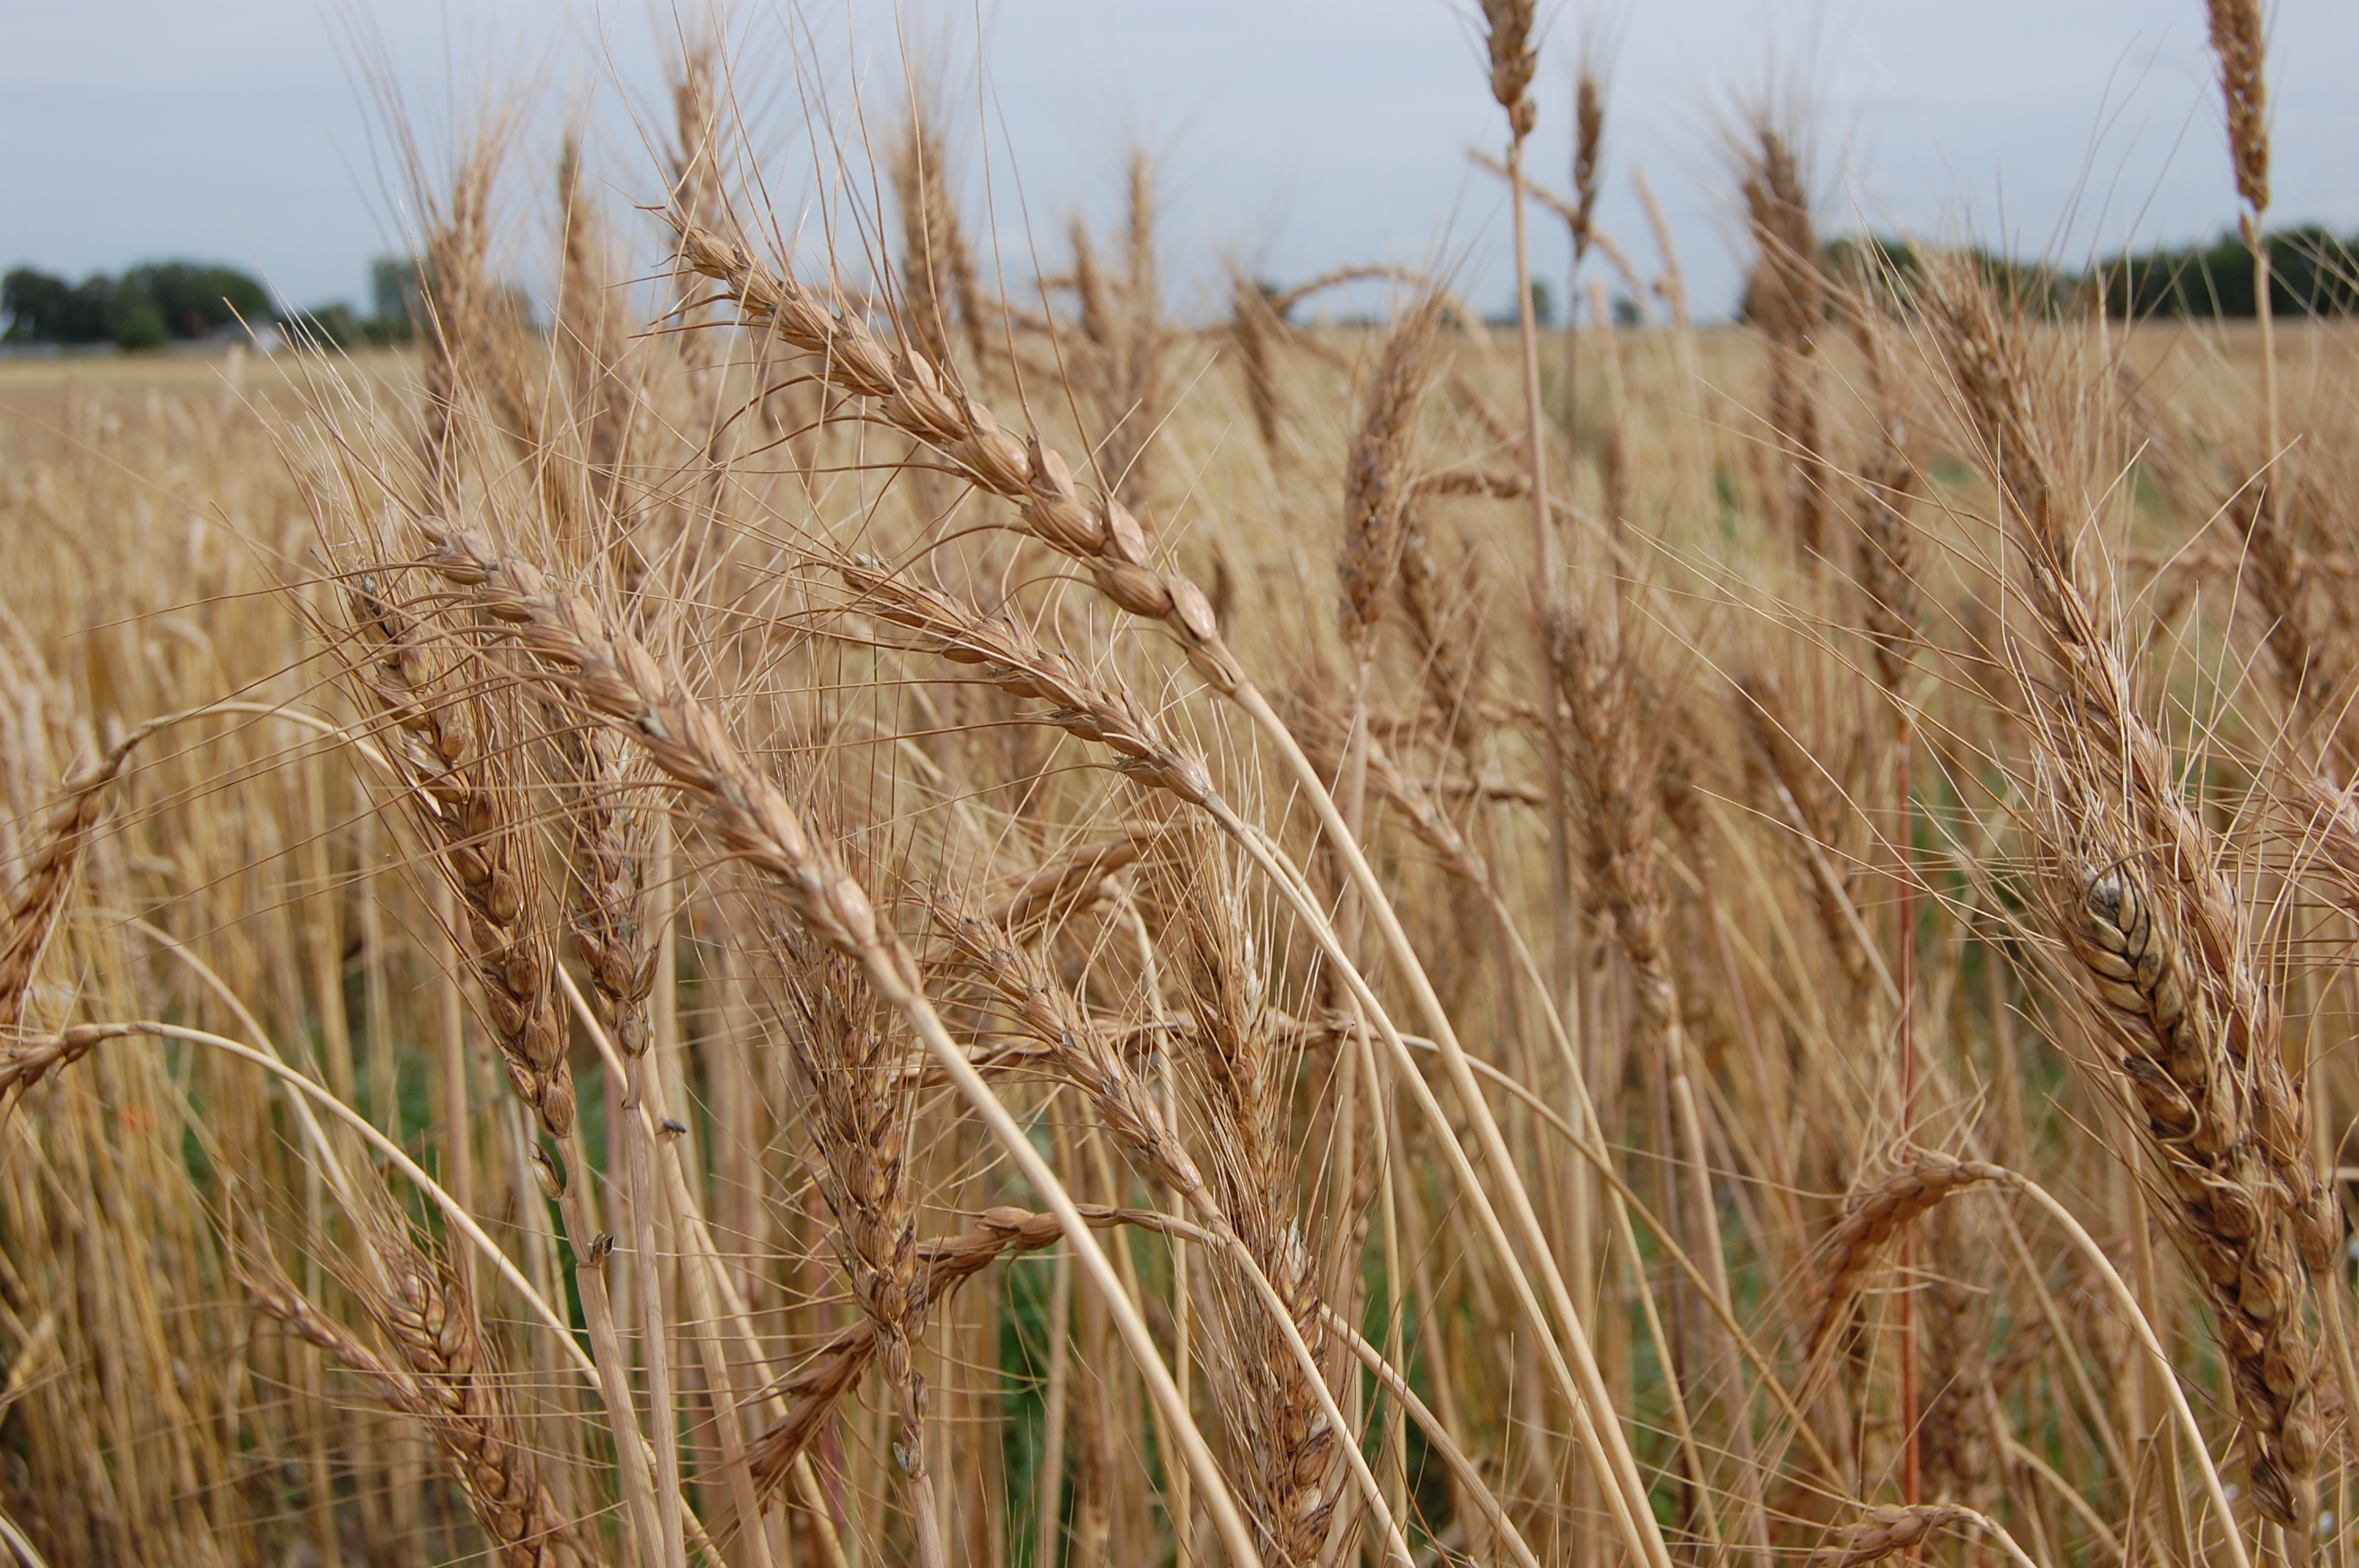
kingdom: Plantae
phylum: Tracheophyta
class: Liliopsida
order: Poales
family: Poaceae
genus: Triticum
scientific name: Triticum aestivum
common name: Common wheat
